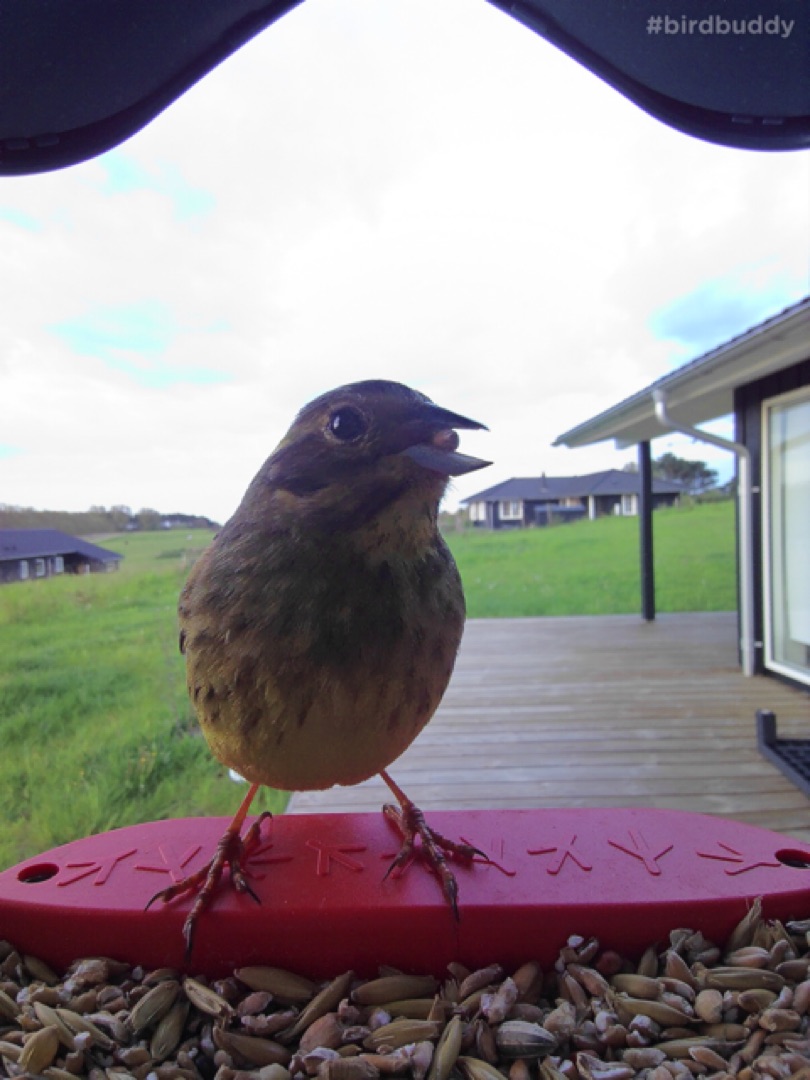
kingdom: Animalia
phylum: Chordata
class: Aves
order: Passeriformes
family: Emberizidae
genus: Emberiza
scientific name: Emberiza citrinella
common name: Gulspurv
